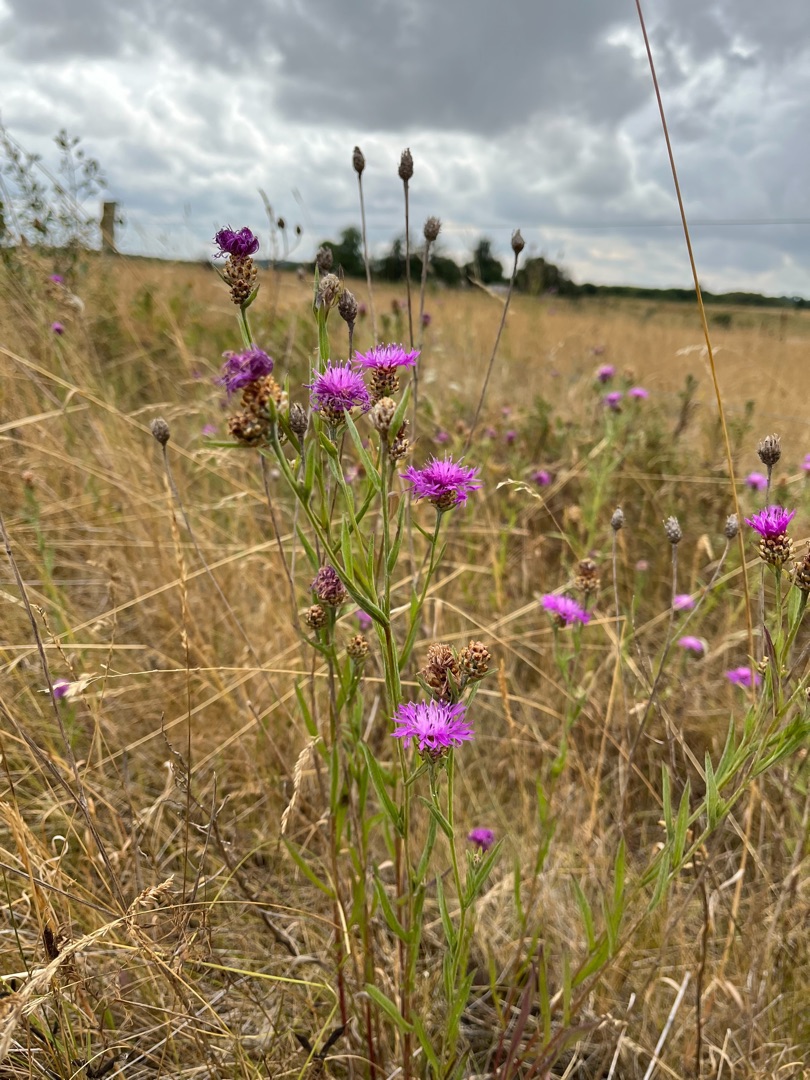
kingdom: Plantae
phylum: Tracheophyta
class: Magnoliopsida
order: Asterales
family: Asteraceae
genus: Centaurea
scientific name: Centaurea jacea
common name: Almindelig knopurt
